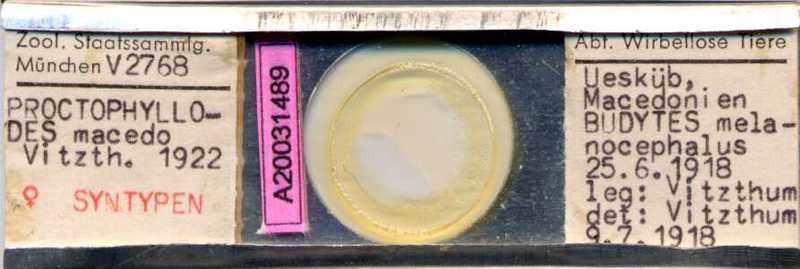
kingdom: Animalia
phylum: Arthropoda
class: Arachnida
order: Sarcoptiformes
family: Proctophyllodidae
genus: Proctophyllodes
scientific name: Proctophyllodes macedo
